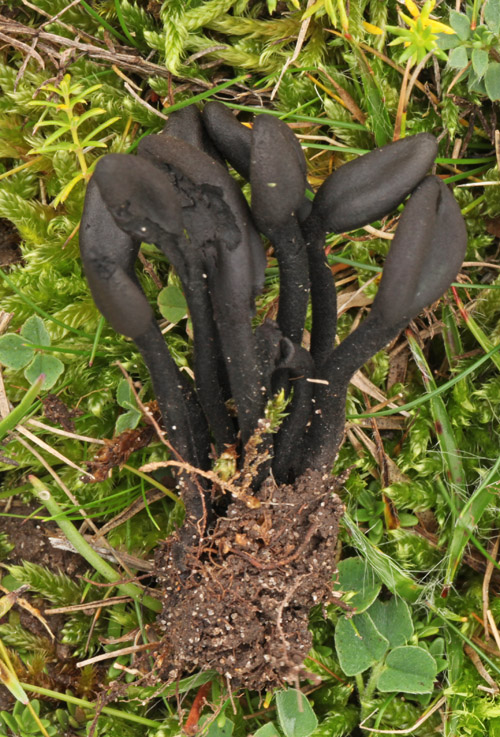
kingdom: Fungi
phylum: Ascomycota
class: Geoglossomycetes
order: Geoglossales
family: Geoglossaceae
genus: Trichoglossum
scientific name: Trichoglossum hirsutum
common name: håret jordtunge
